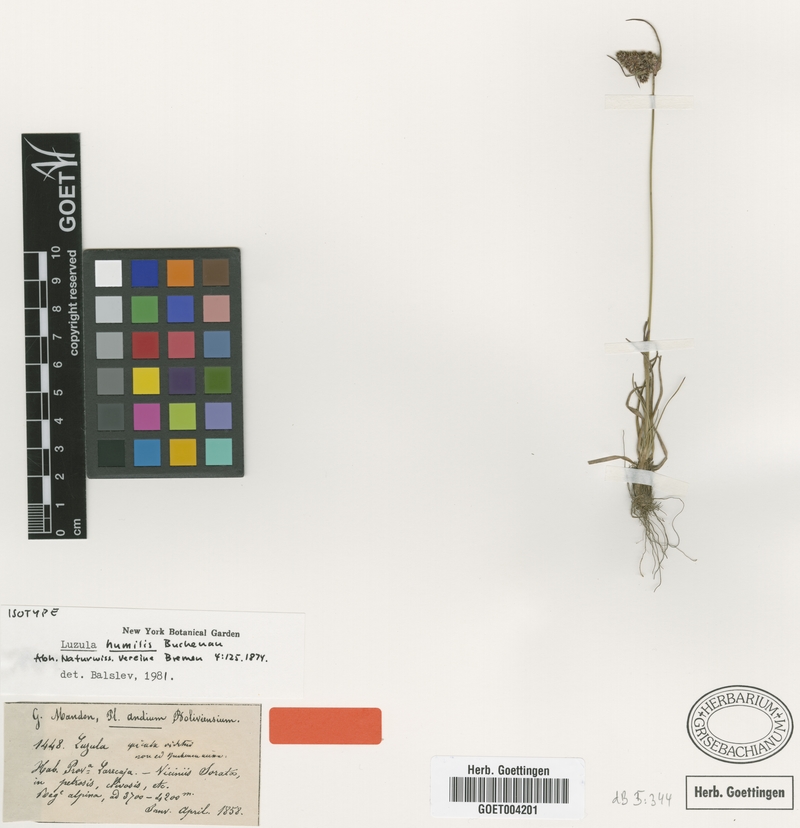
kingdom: Plantae
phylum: Tracheophyta
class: Liliopsida
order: Poales
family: Juncaceae
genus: Luzula
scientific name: Luzula racemosa
